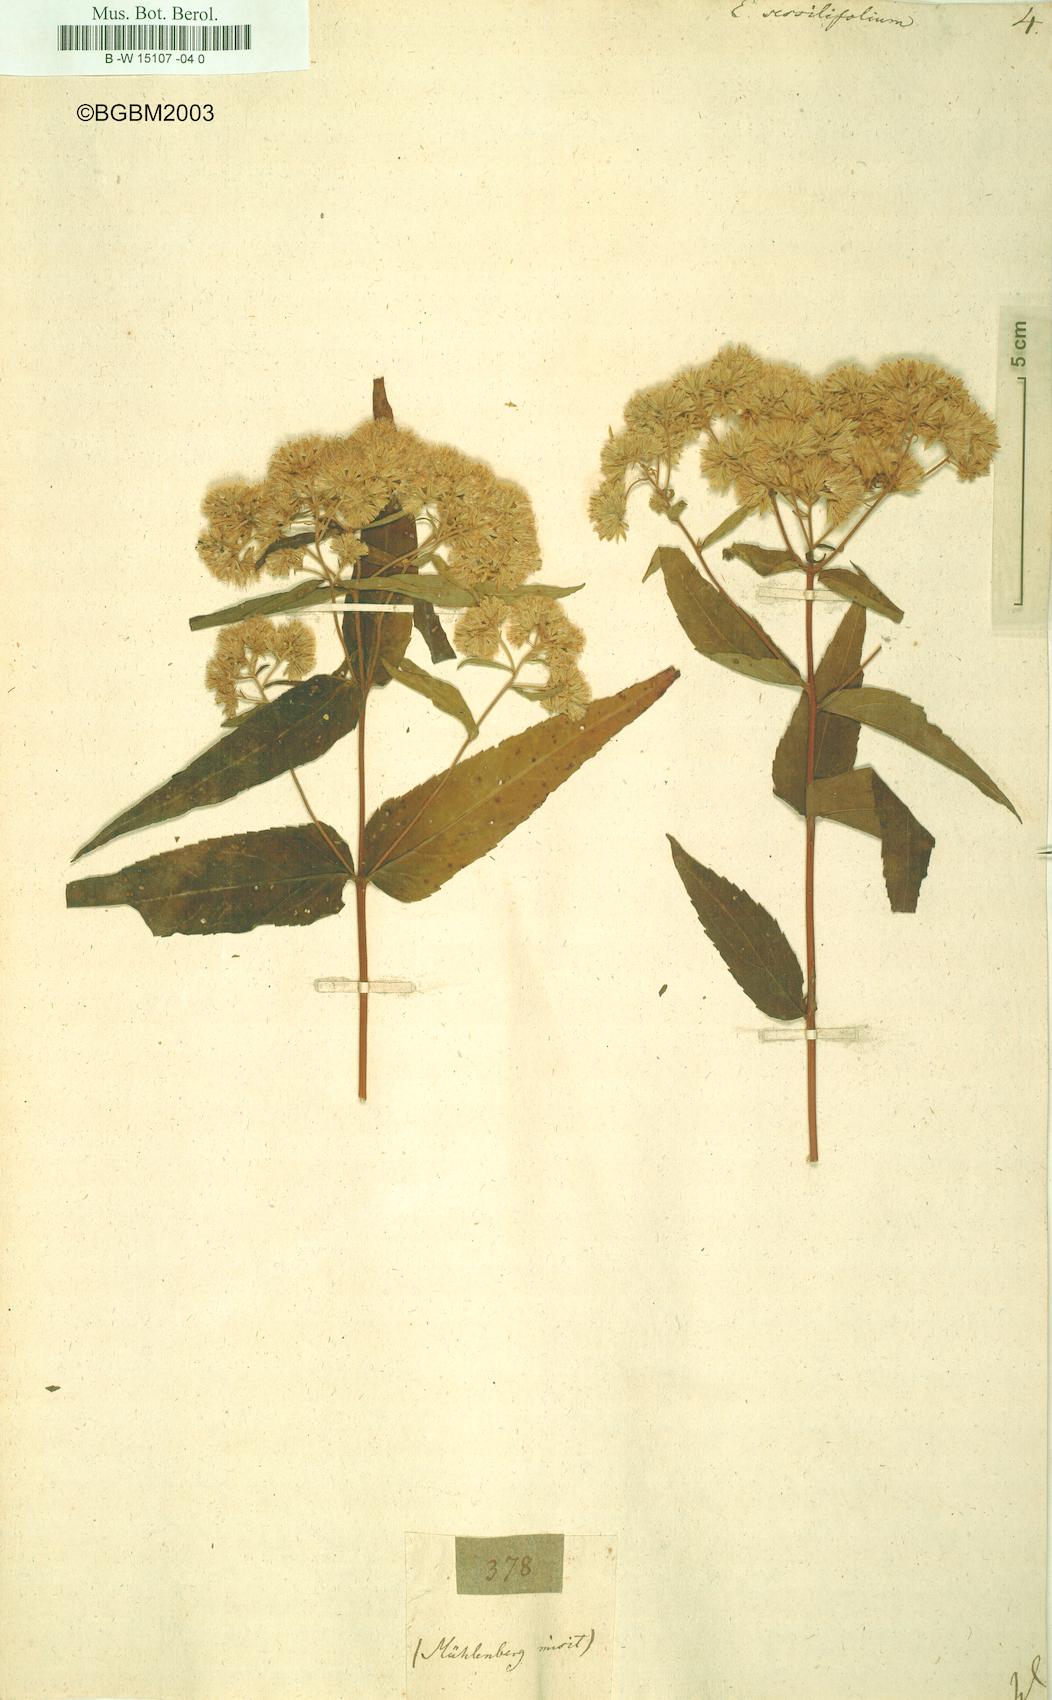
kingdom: Plantae
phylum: Tracheophyta
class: Magnoliopsida
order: Asterales
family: Asteraceae
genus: Eupatorium
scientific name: Eupatorium sessilifolium
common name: Upland boneset
